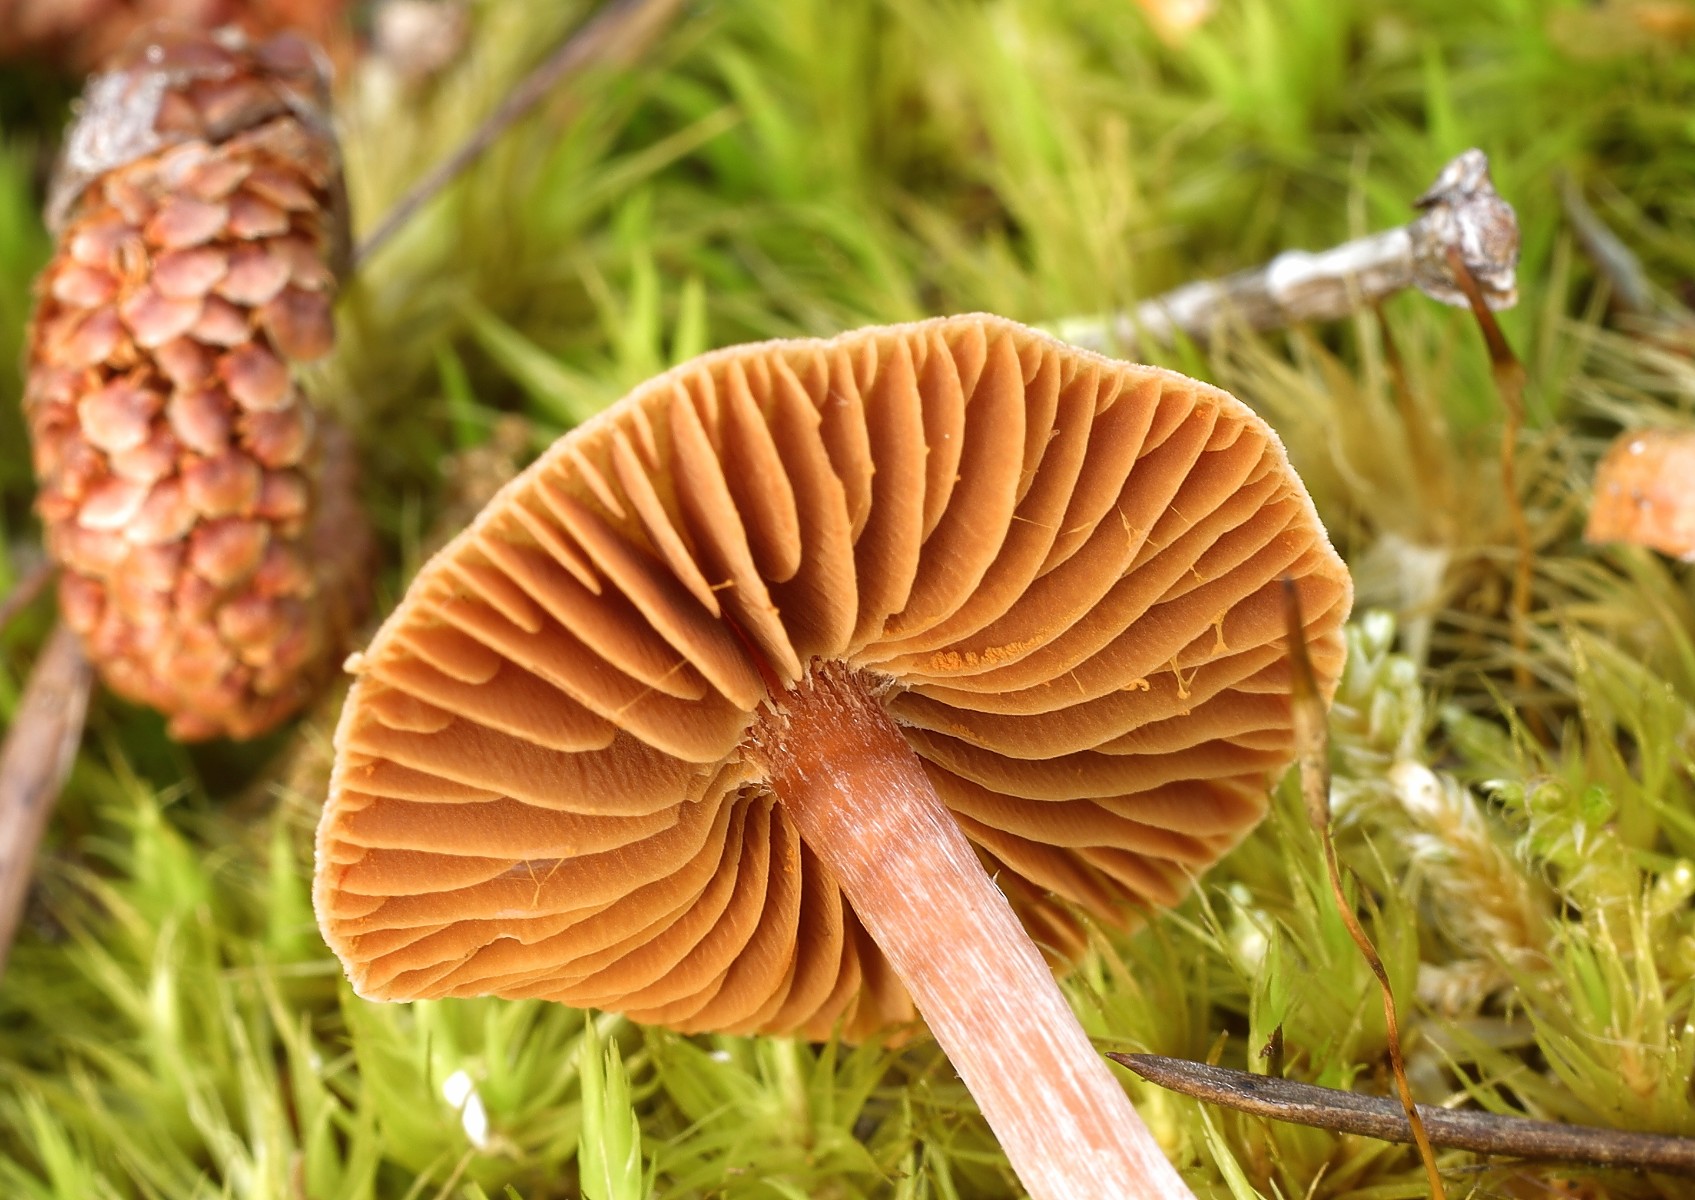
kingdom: Fungi
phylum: Basidiomycota
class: Agaricomycetes
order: Agaricales
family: Cortinariaceae
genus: Cortinarius
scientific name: Cortinarius
